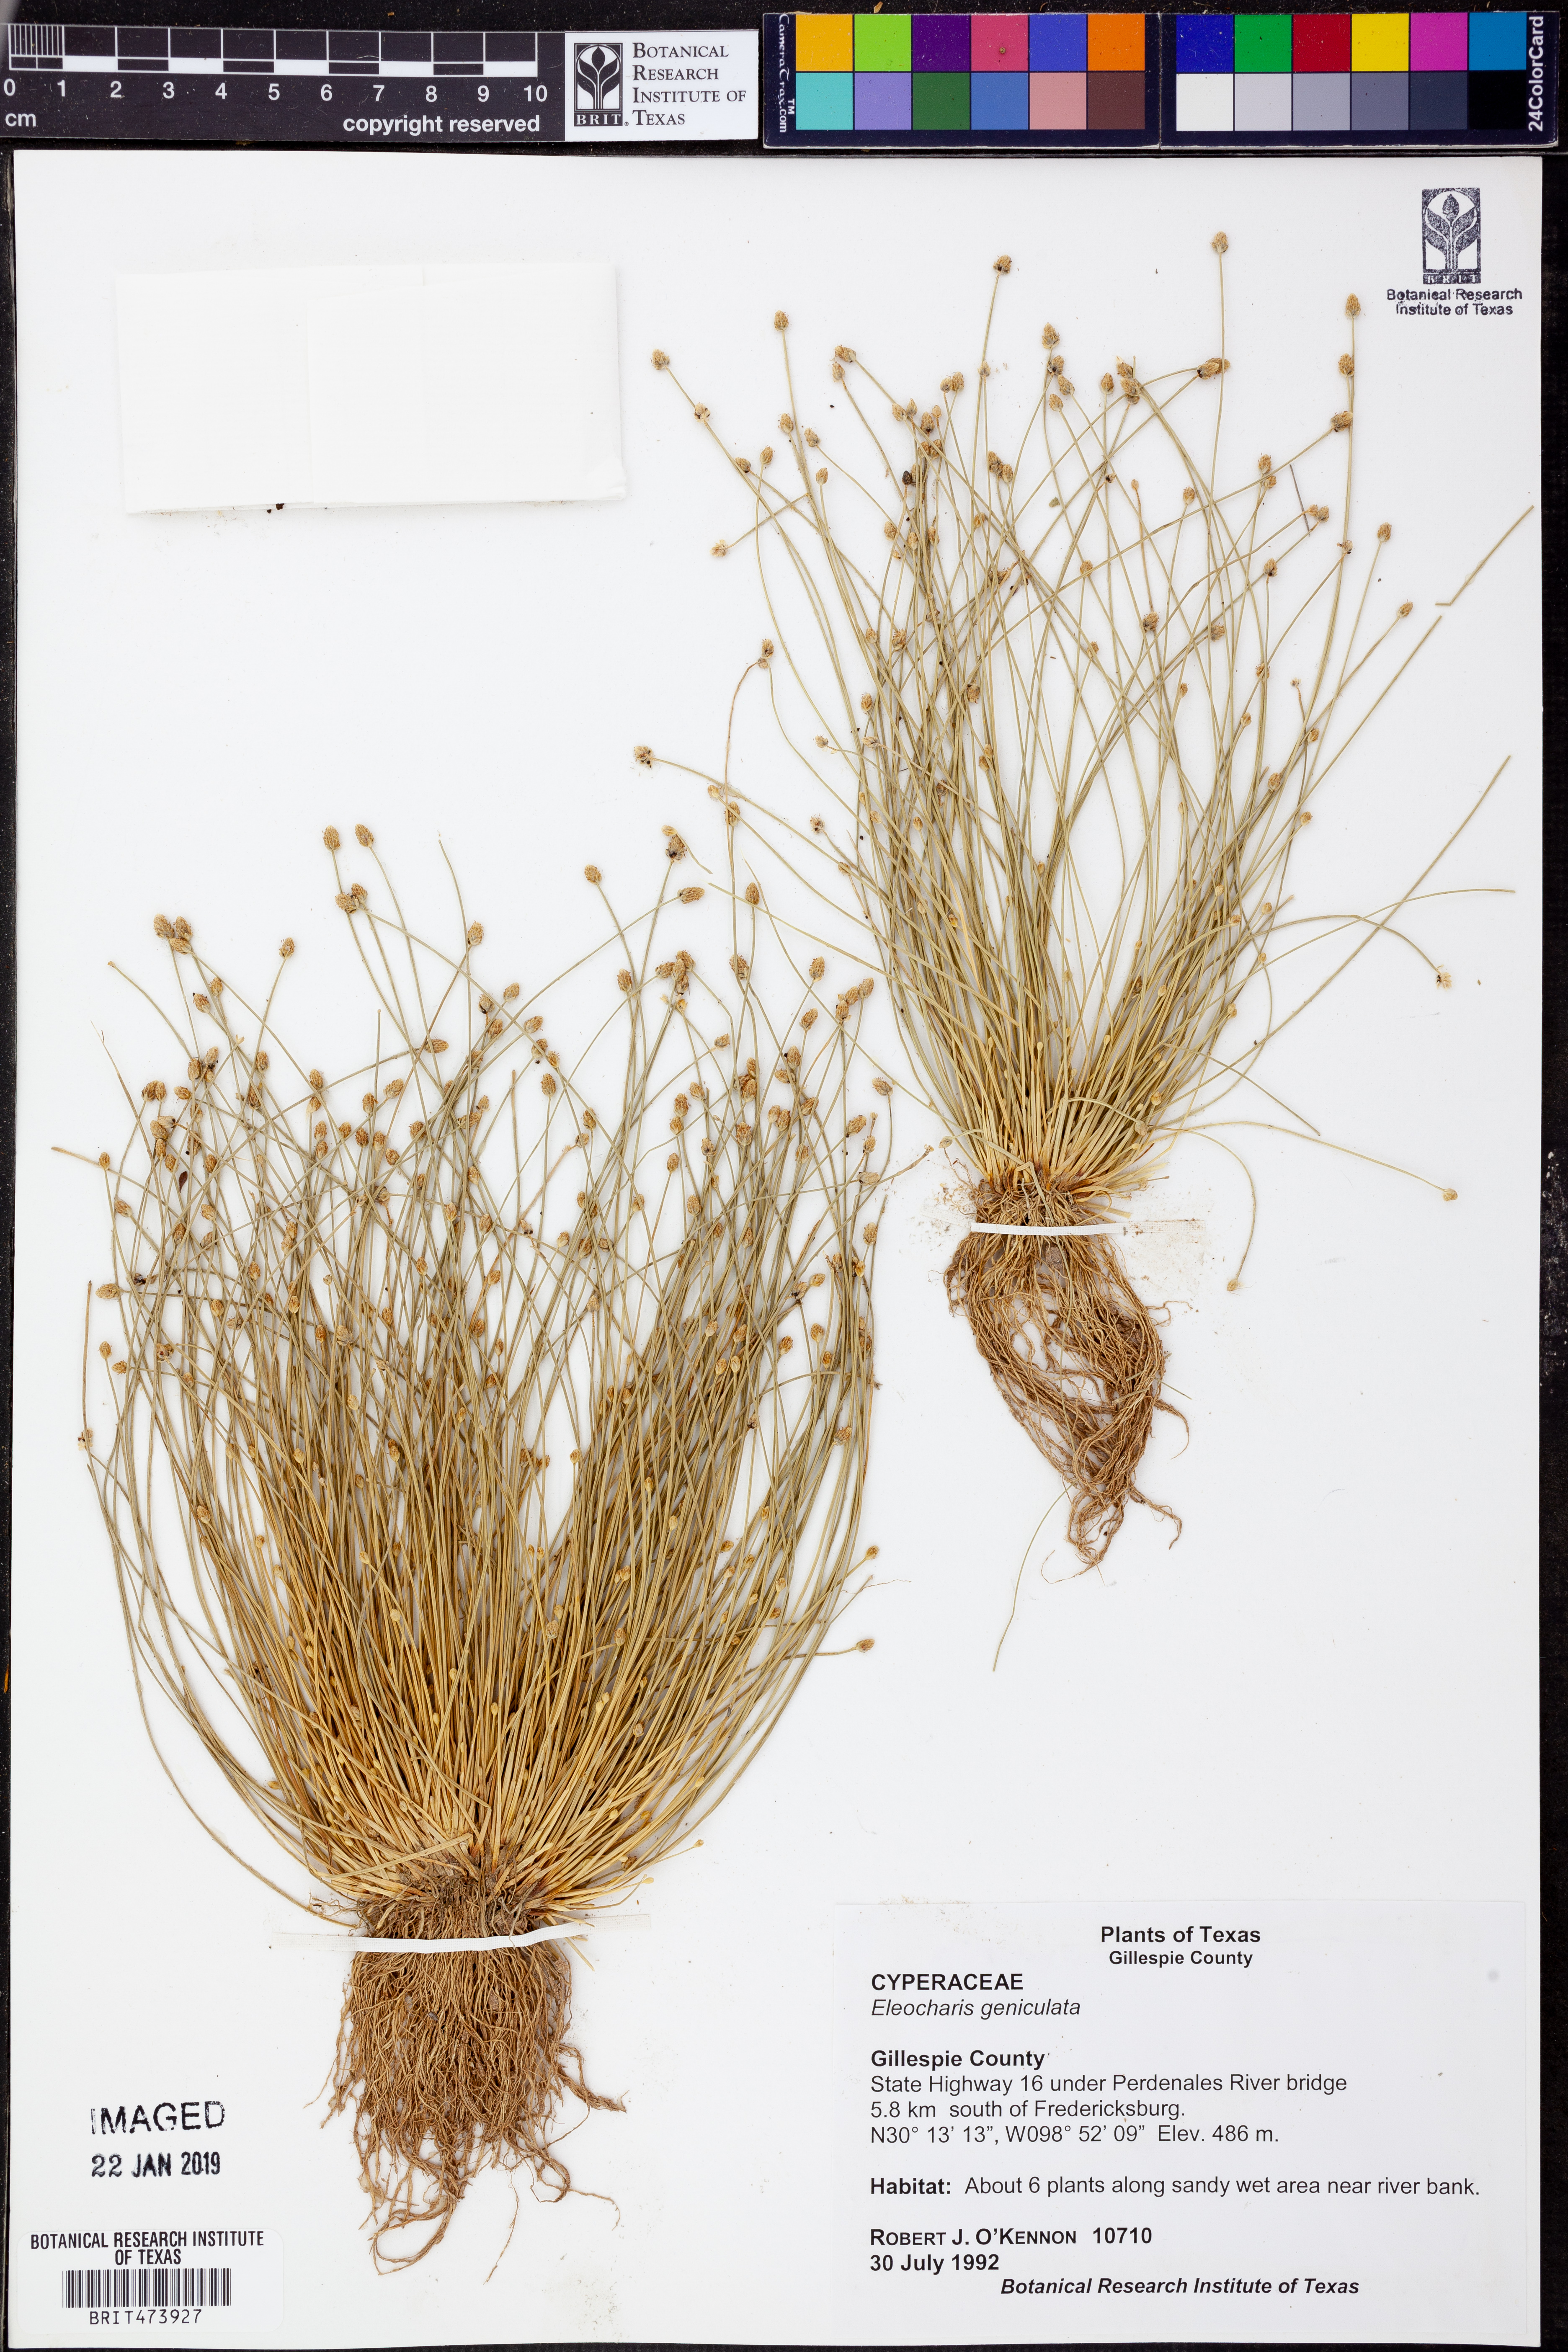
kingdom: Plantae
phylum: Tracheophyta
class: Liliopsida
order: Poales
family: Cyperaceae
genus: Eleocharis
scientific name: Eleocharis geniculata
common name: Canada spikesedge
